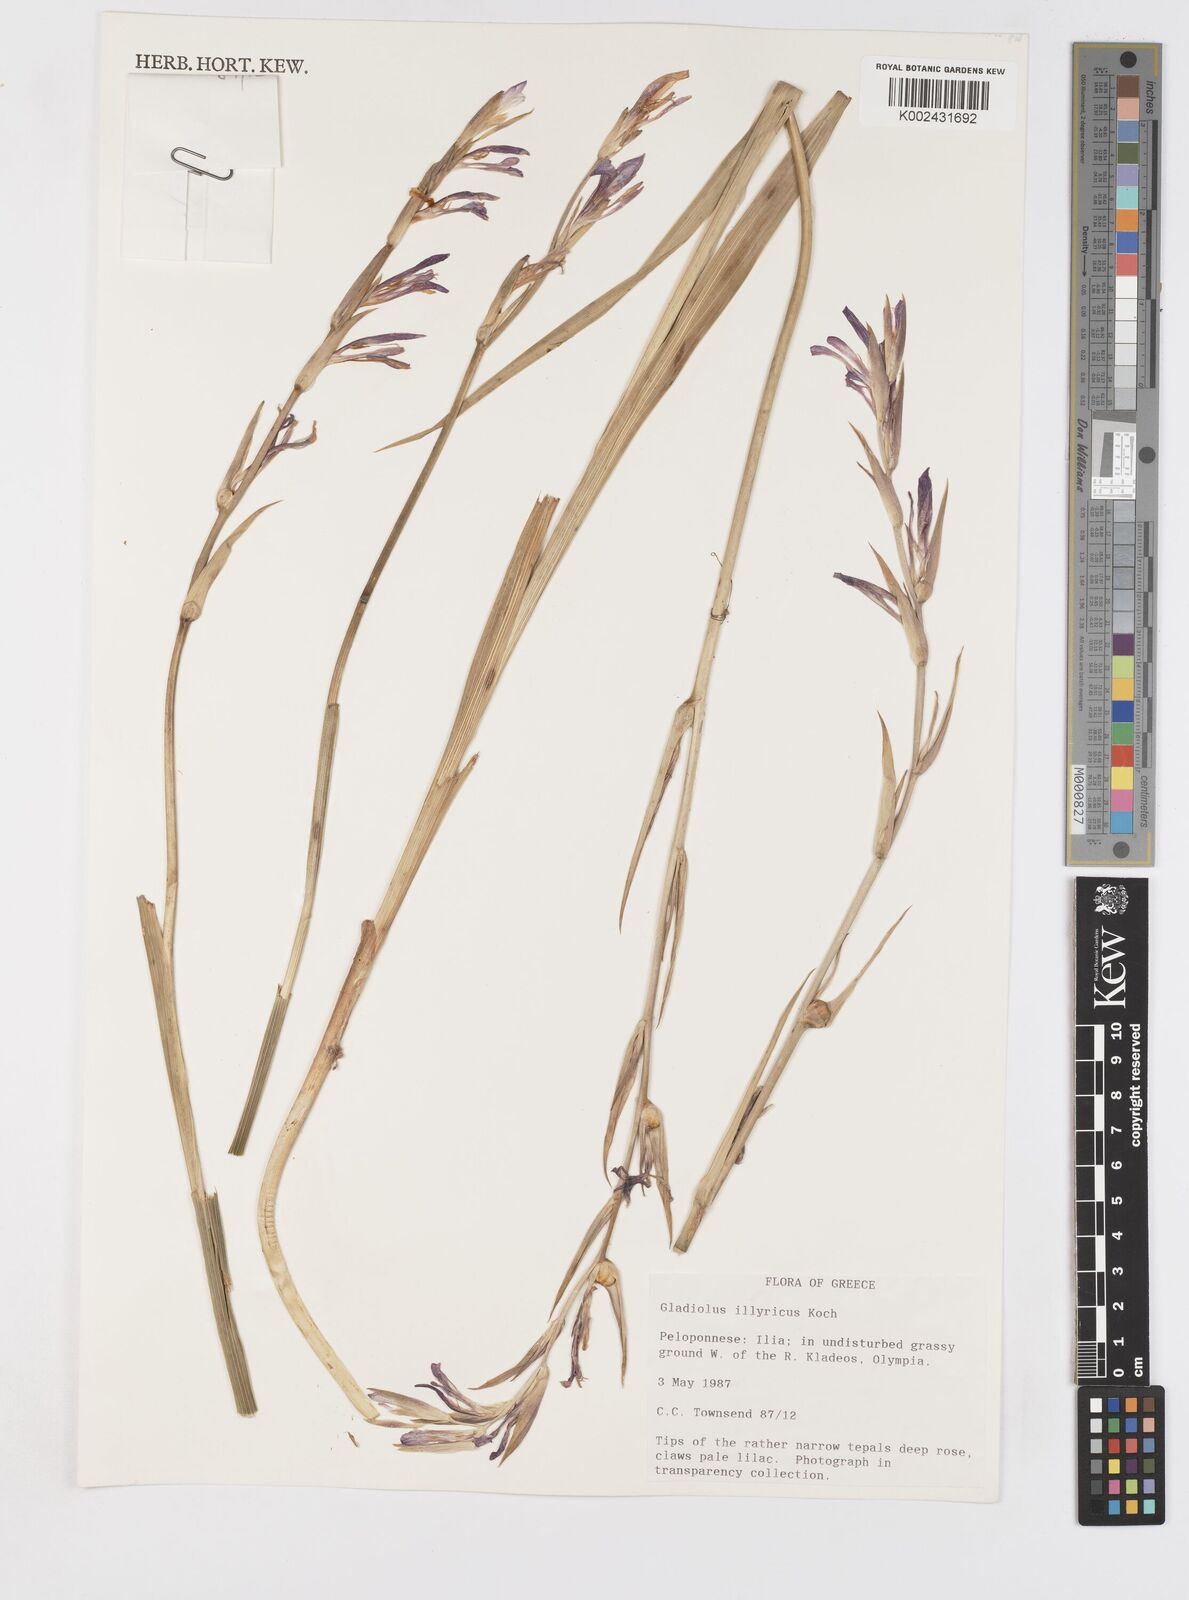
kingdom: Plantae
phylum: Tracheophyta
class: Liliopsida
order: Asparagales
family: Iridaceae
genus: Gladiolus
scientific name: Gladiolus illyricus
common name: Wild gladiolus
